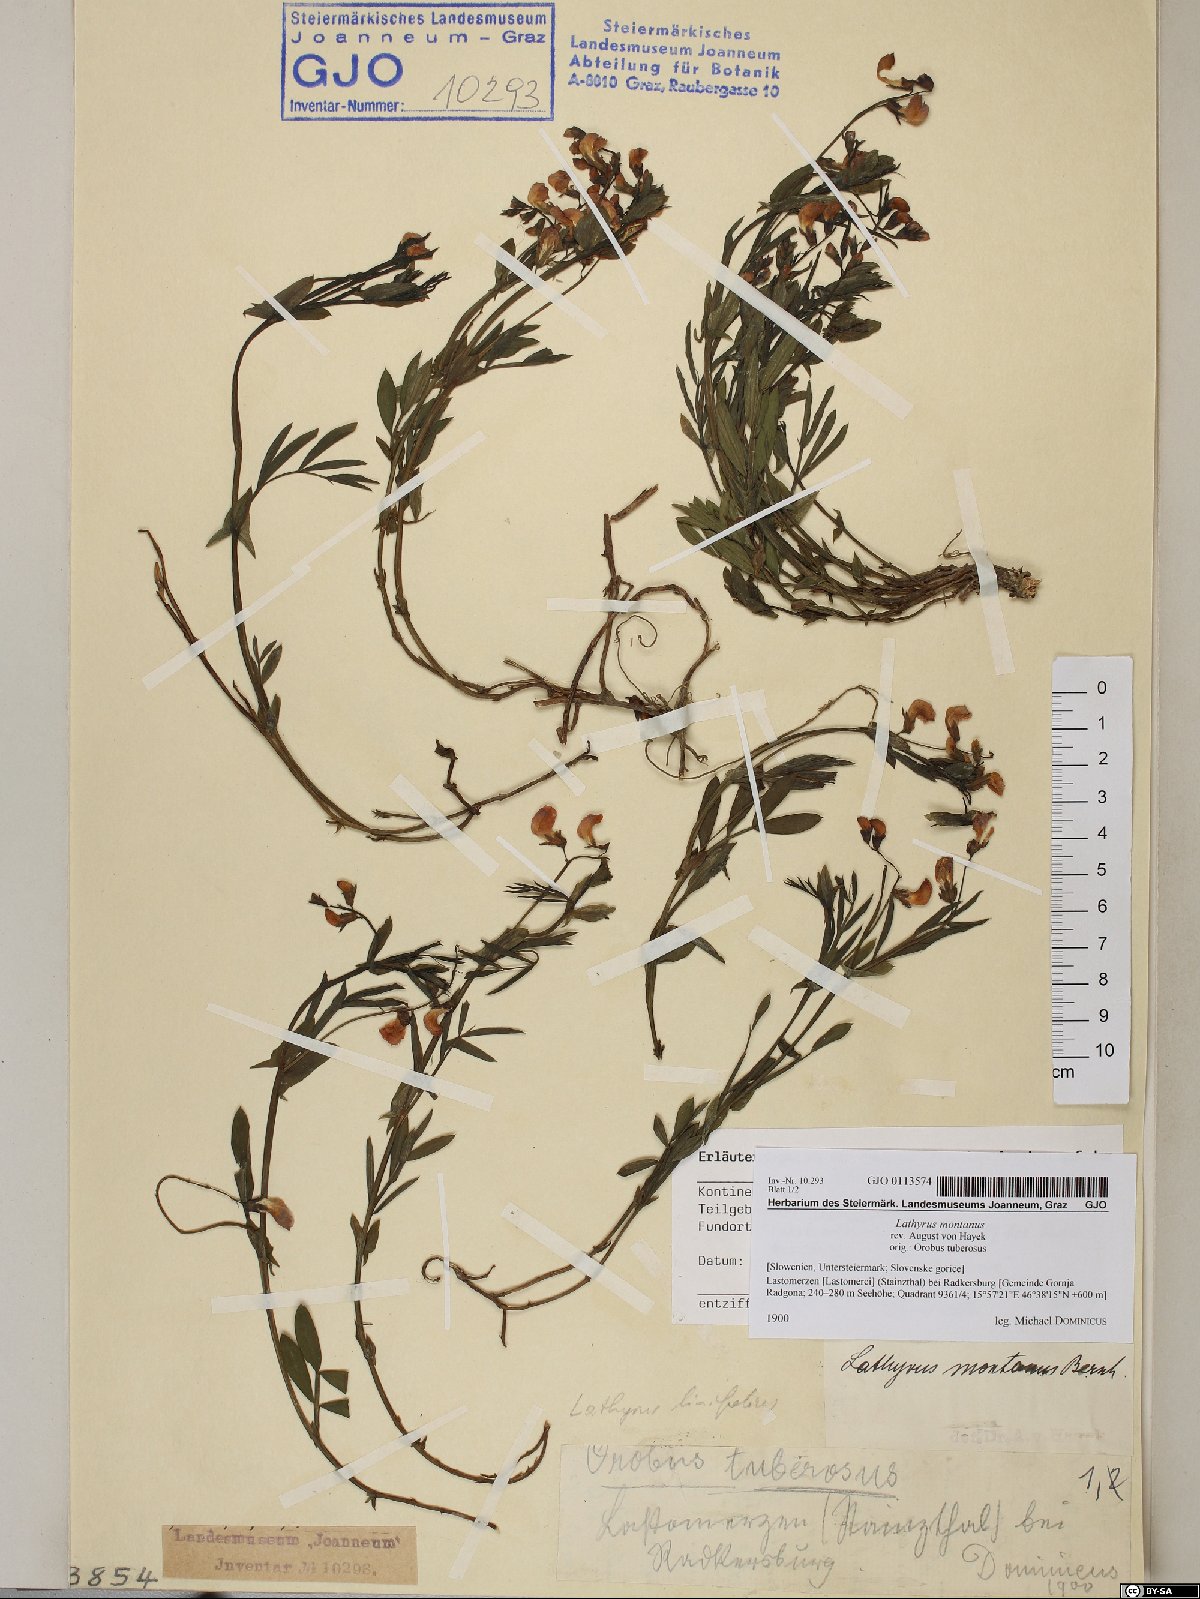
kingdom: Plantae
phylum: Tracheophyta
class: Magnoliopsida
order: Fabales
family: Fabaceae
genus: Lathyrus
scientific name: Lathyrus linifolius
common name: Bitter-vetch
